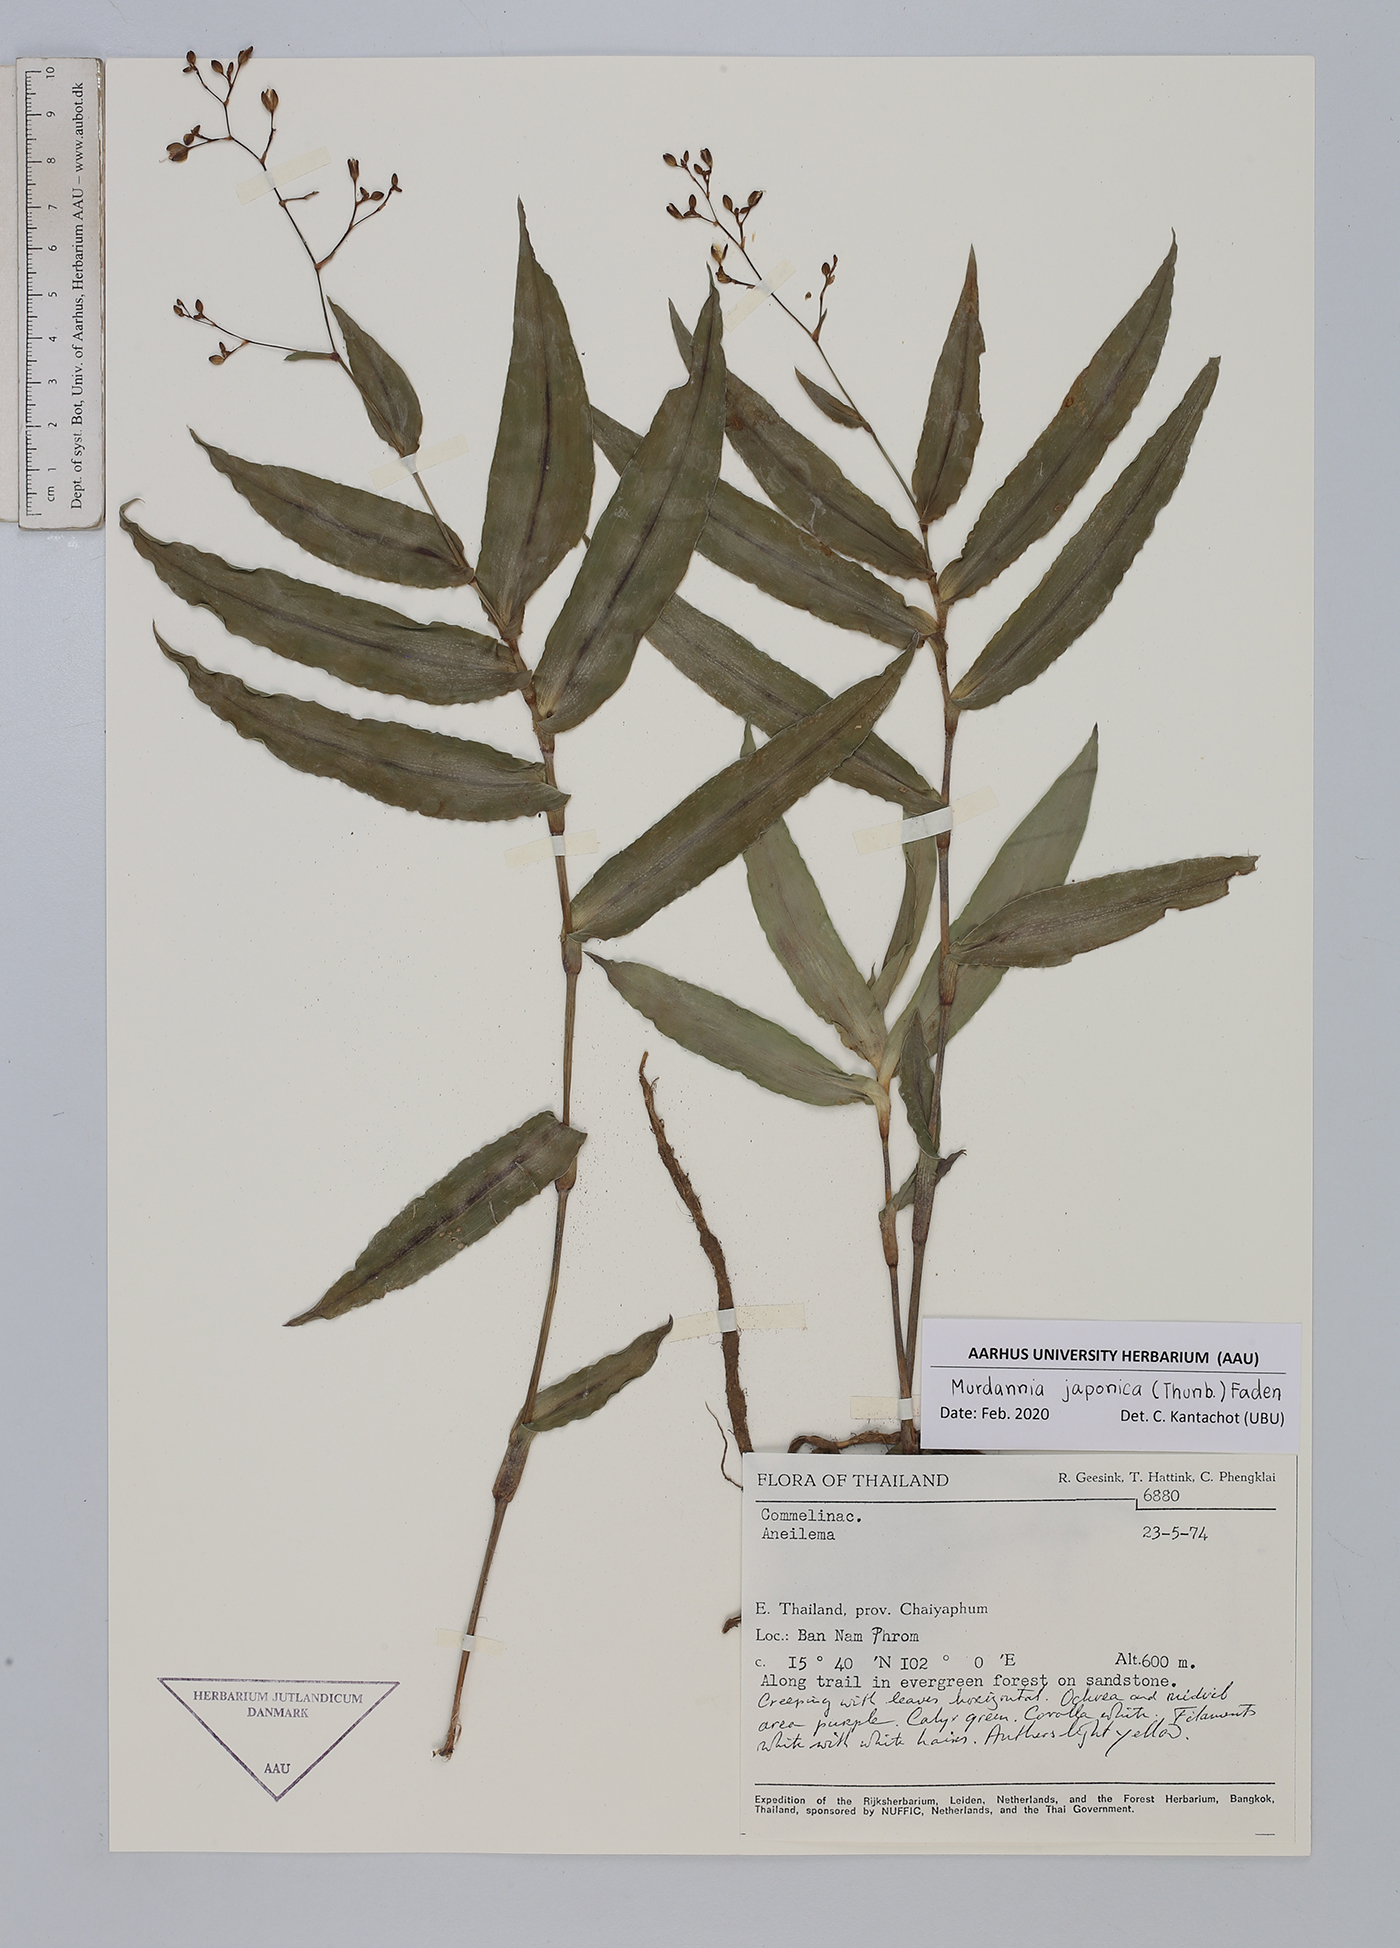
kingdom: Plantae
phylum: Tracheophyta
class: Liliopsida
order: Commelinales
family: Commelinaceae
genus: Murdannia
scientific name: Murdannia japonica
